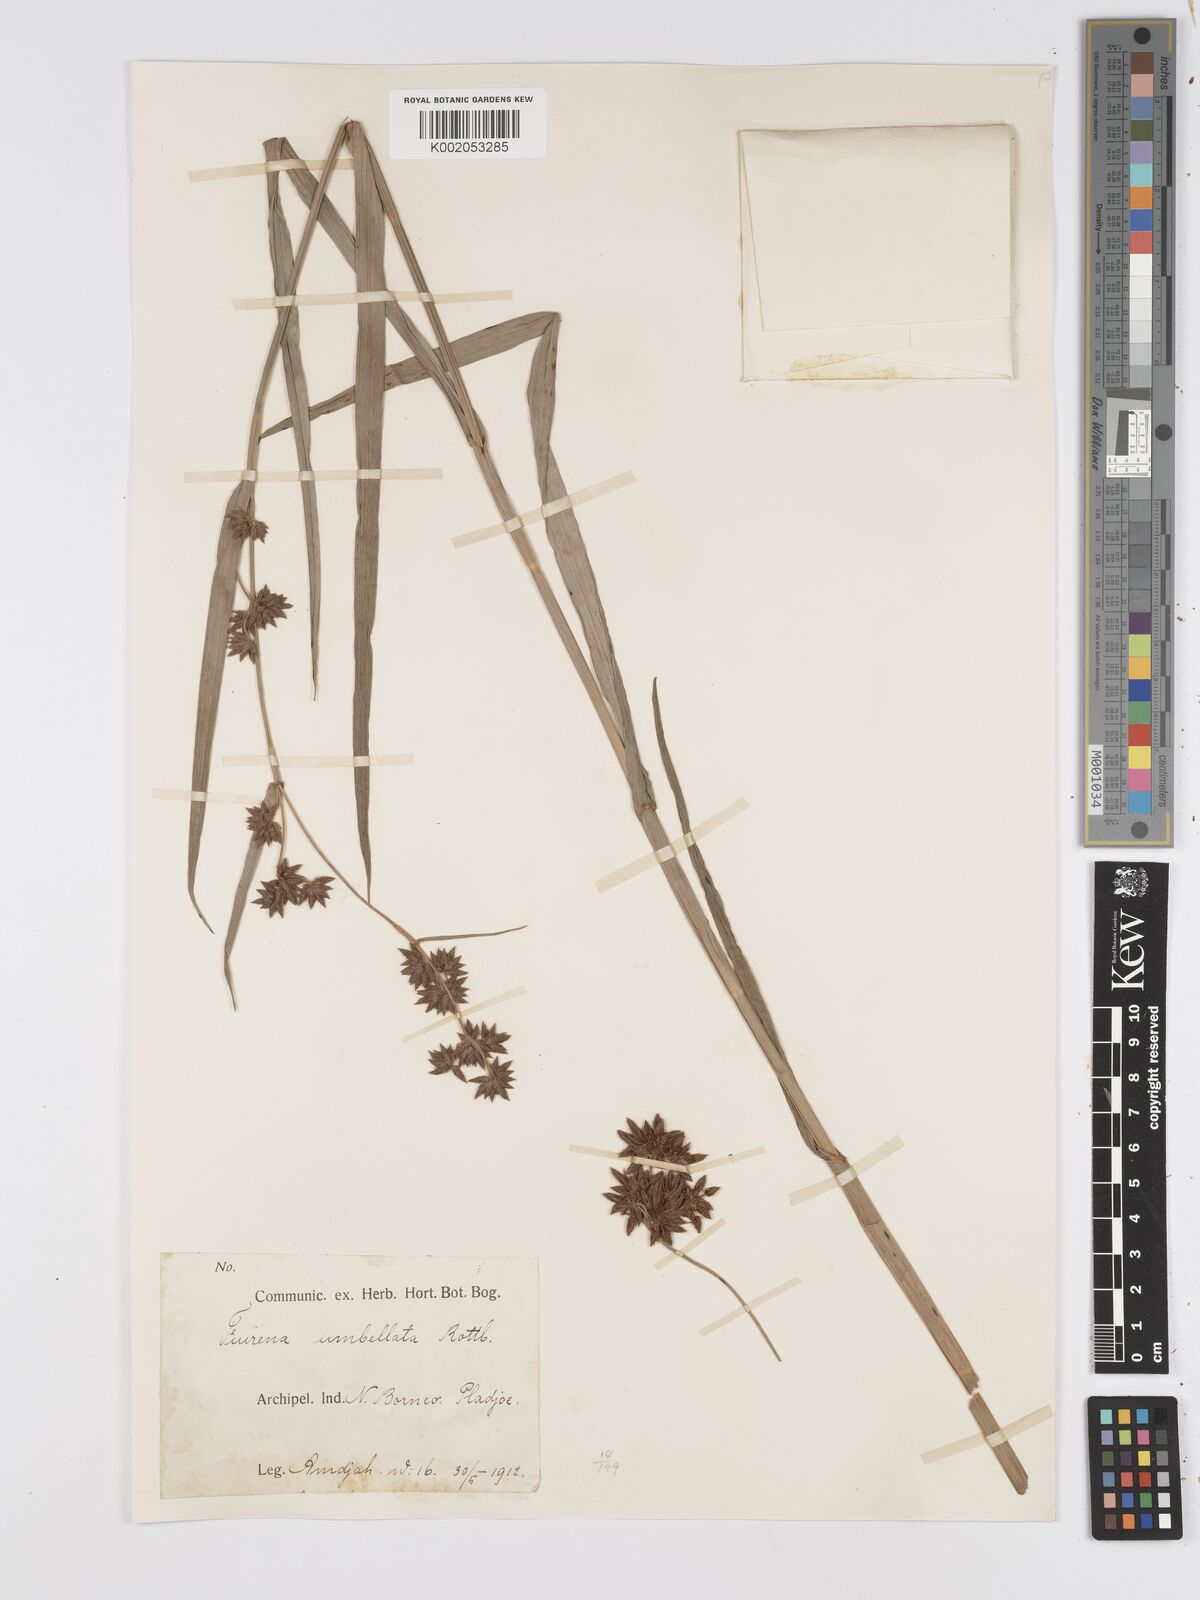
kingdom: Plantae
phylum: Tracheophyta
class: Liliopsida
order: Poales
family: Cyperaceae
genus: Fuirena
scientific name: Fuirena umbellata
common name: Yefen
